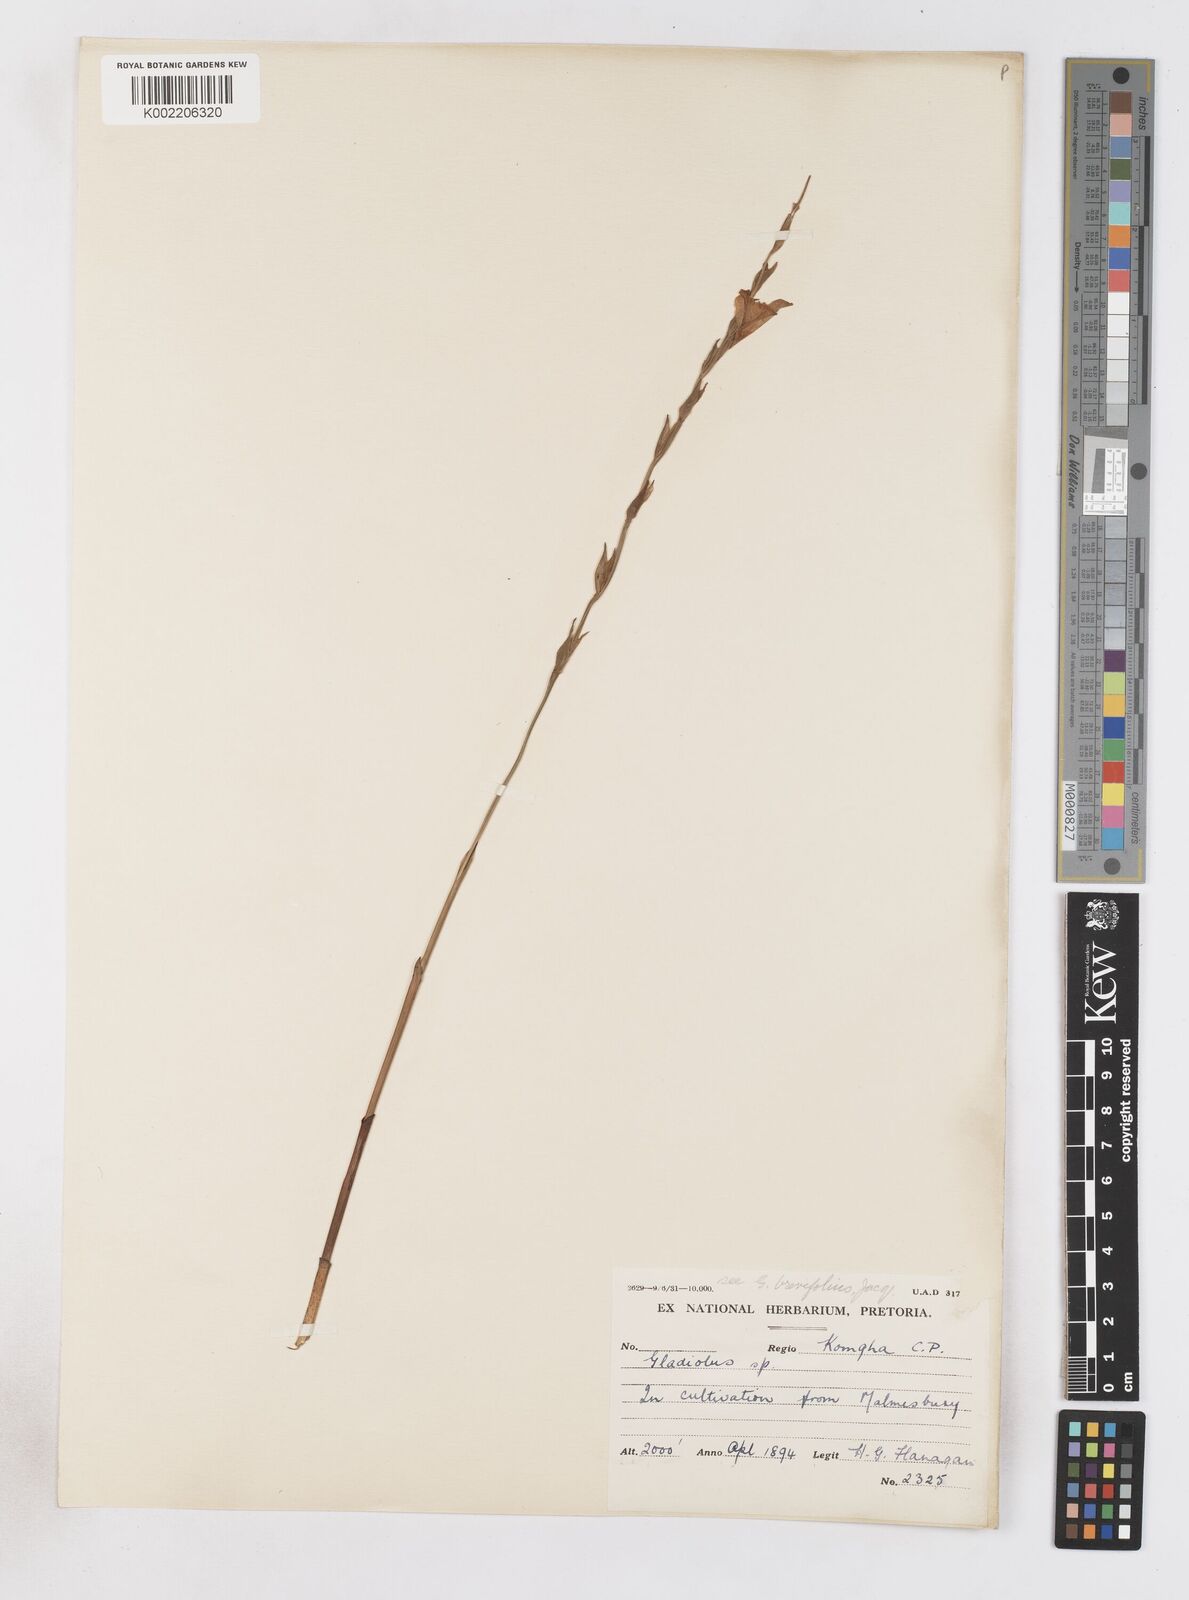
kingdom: Plantae
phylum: Tracheophyta
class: Liliopsida
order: Asparagales
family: Iridaceae
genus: Gladiolus
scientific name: Gladiolus brevifolius
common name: March pypie
